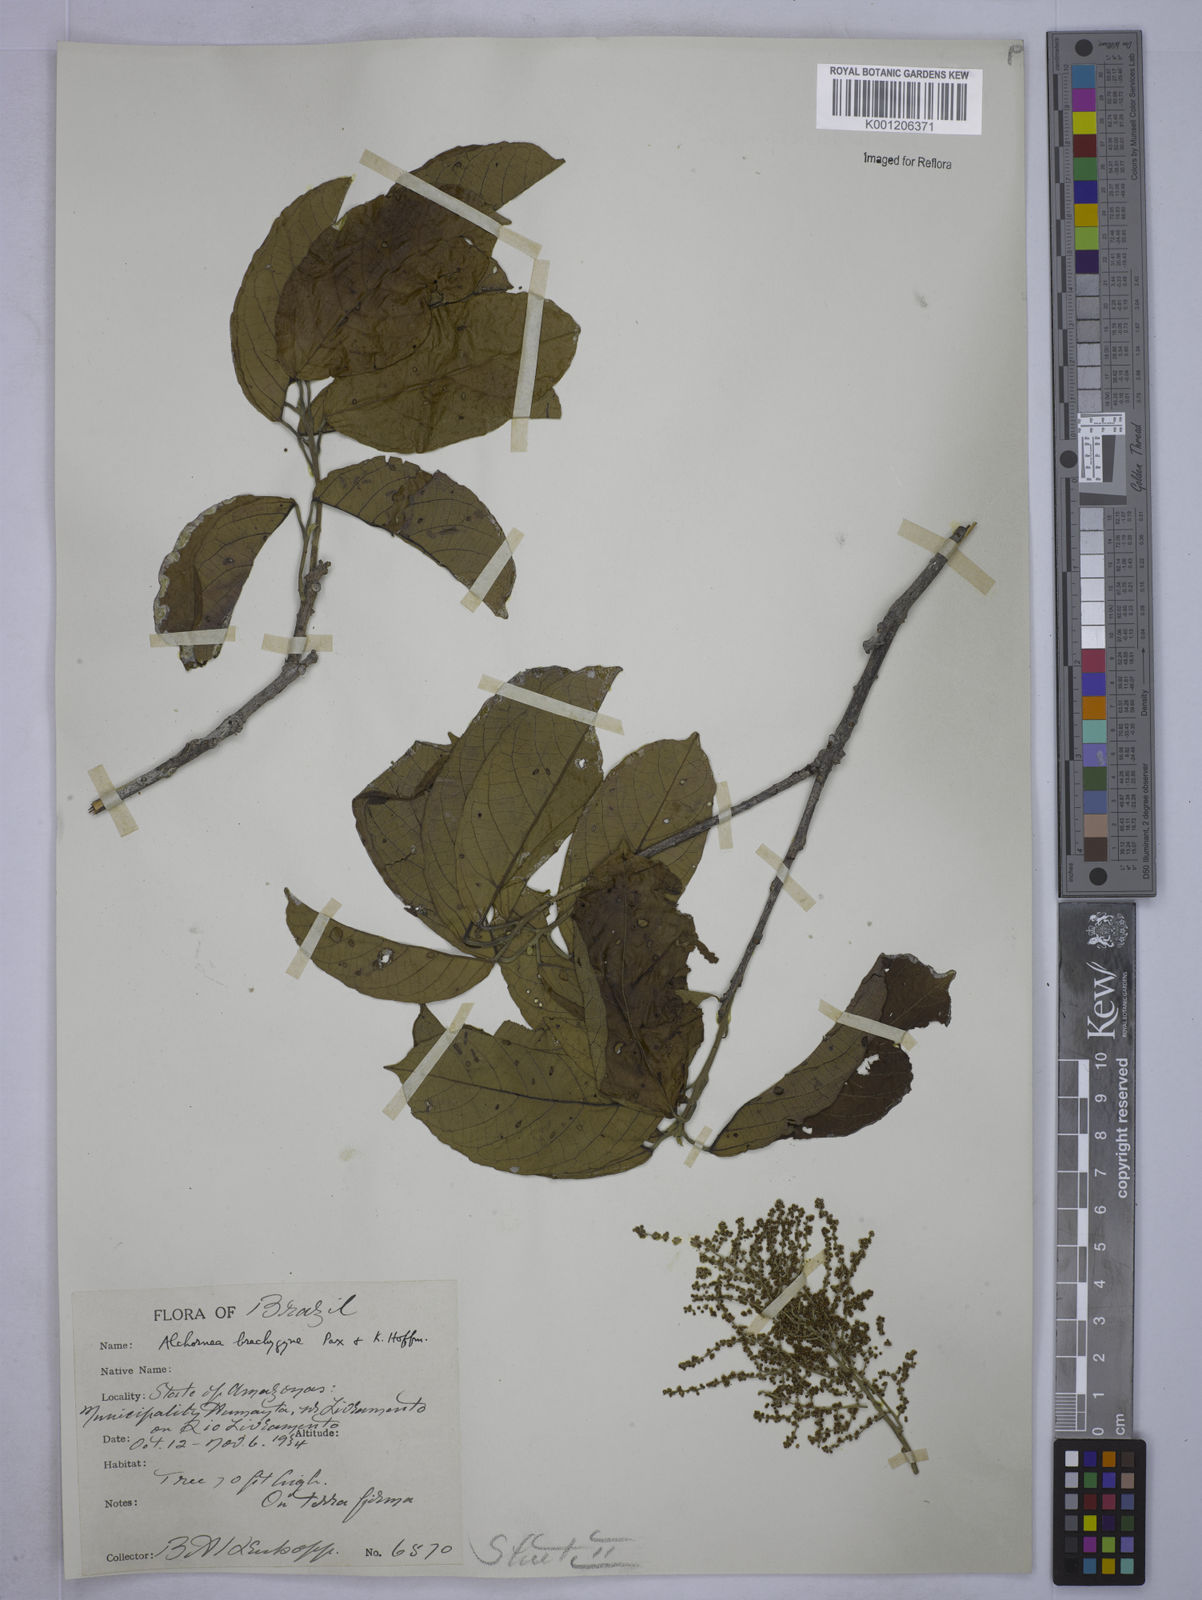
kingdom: Plantae
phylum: Tracheophyta
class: Magnoliopsida
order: Malpighiales
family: Euphorbiaceae
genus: Alchornea
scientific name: Alchornea discolor
